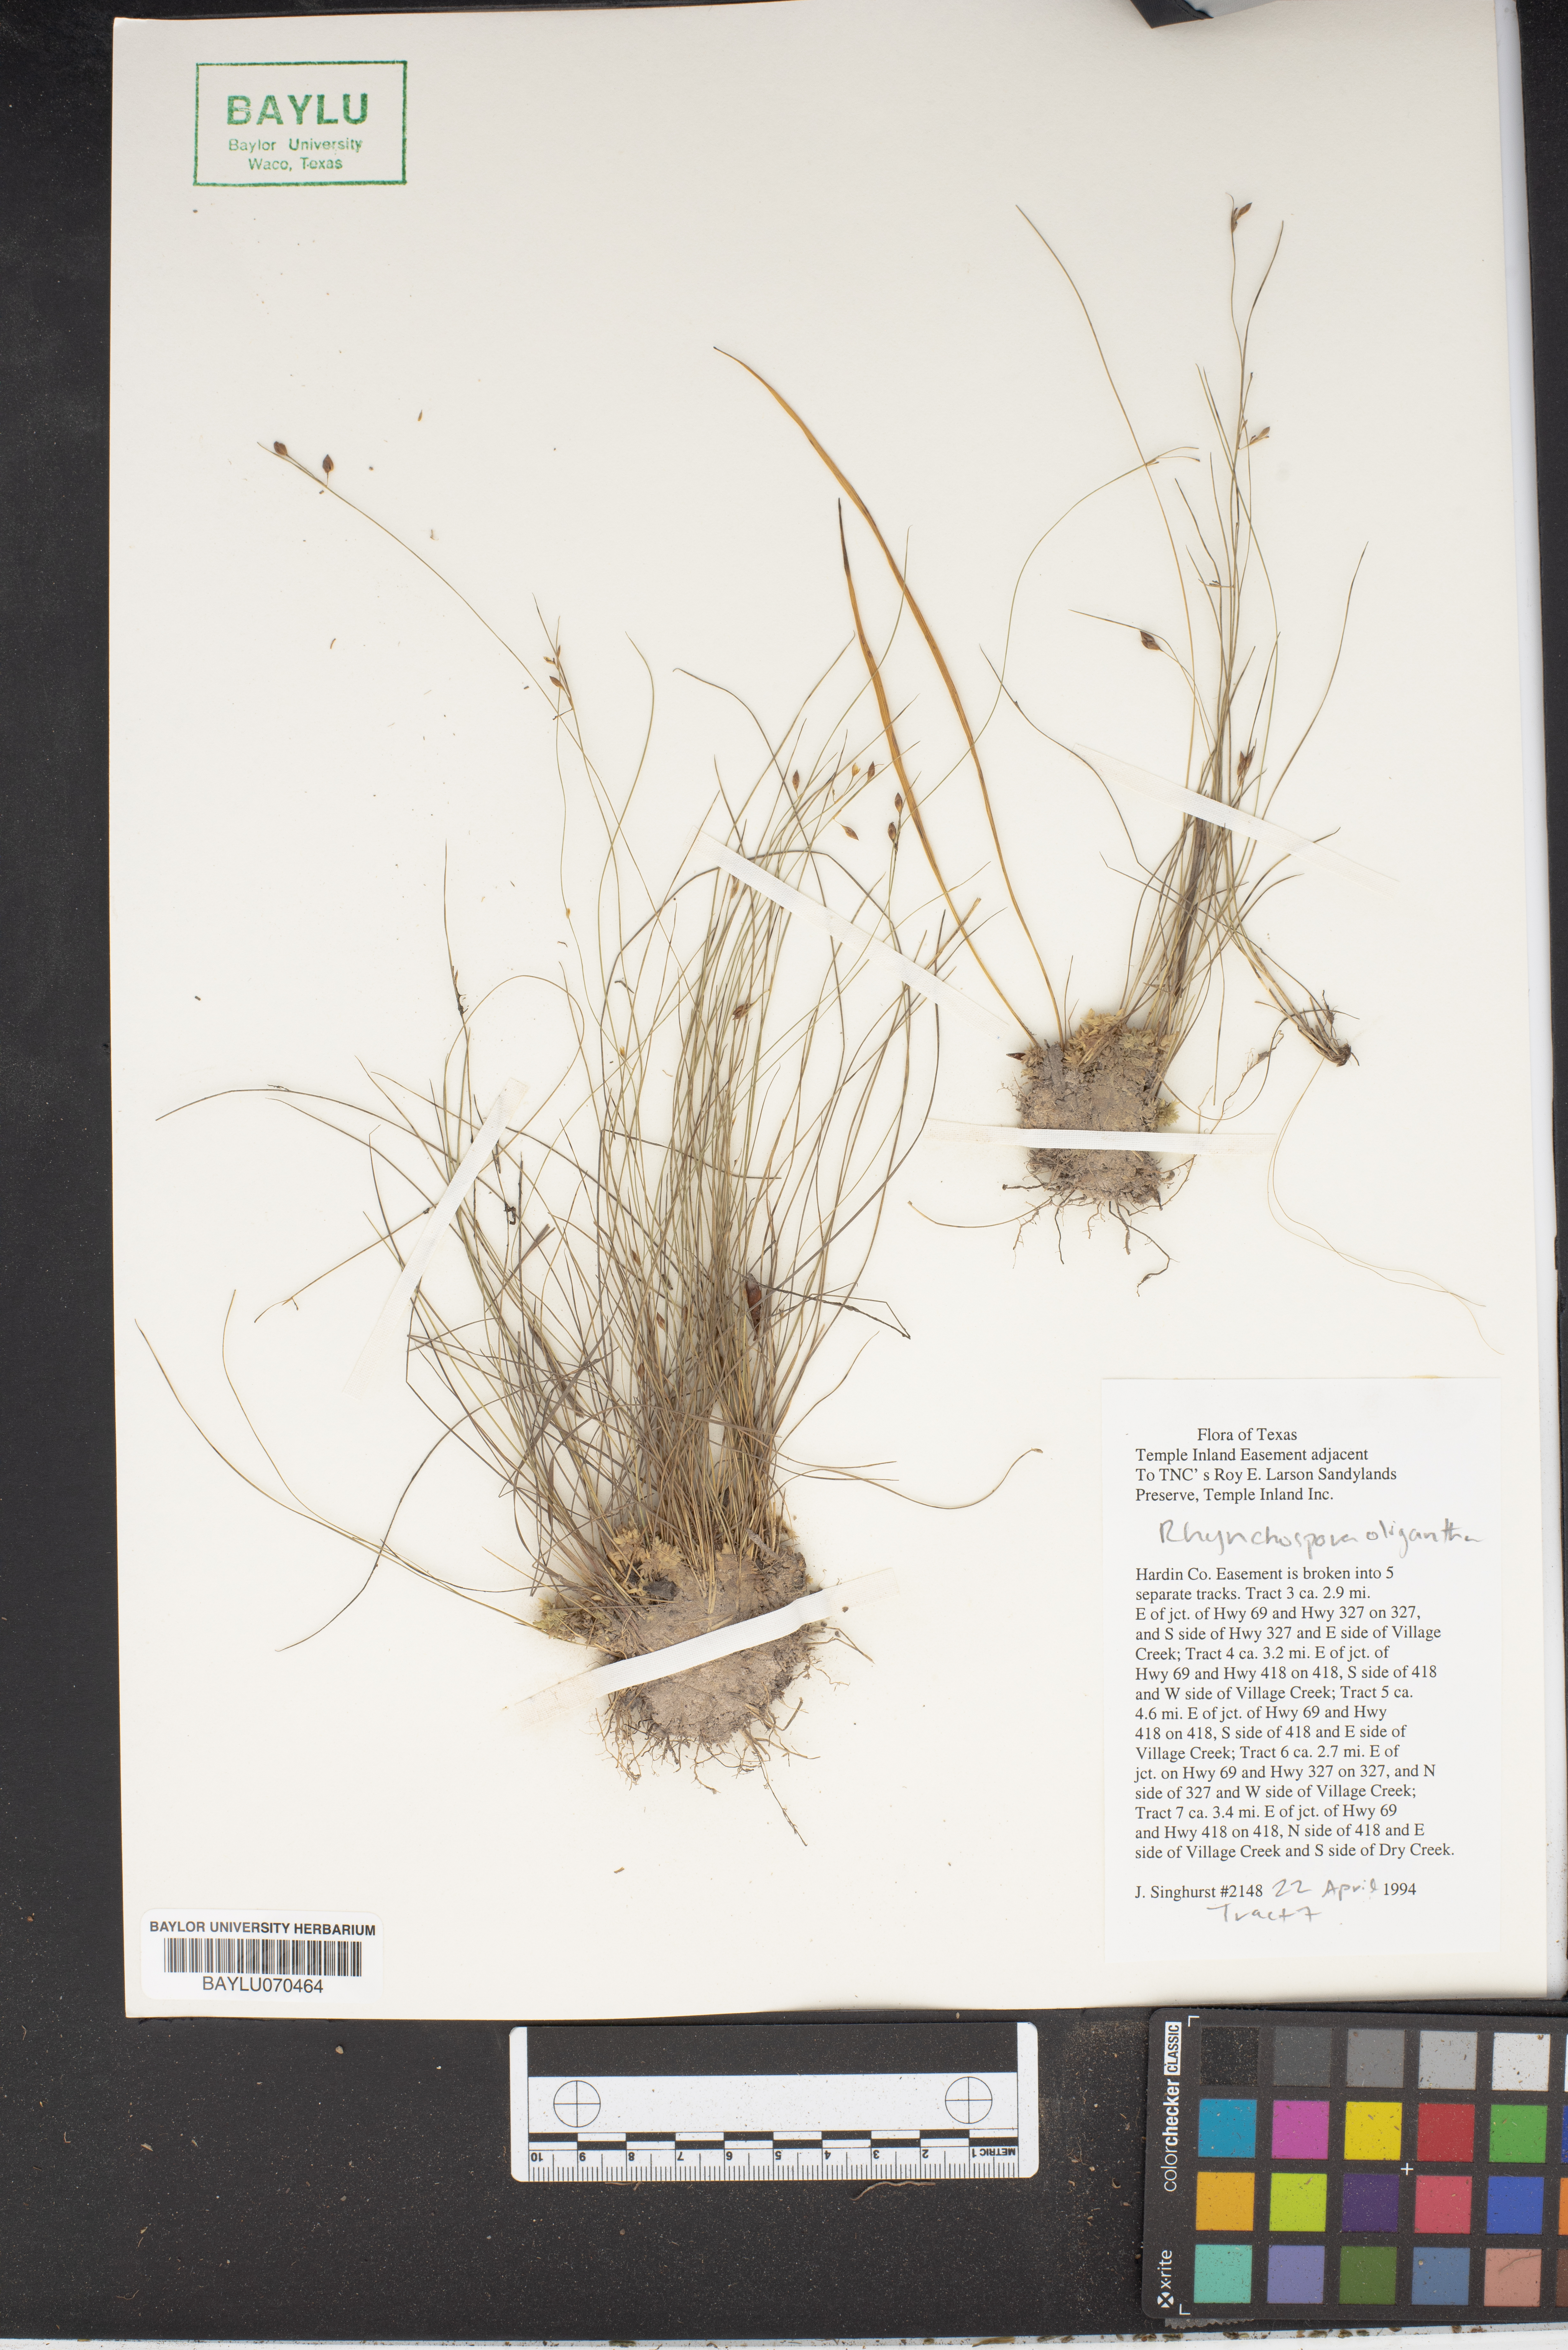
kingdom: Plantae
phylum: Tracheophyta
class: Liliopsida
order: Poales
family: Cyperaceae
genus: Rhynchospora
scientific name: Rhynchospora oligantha
